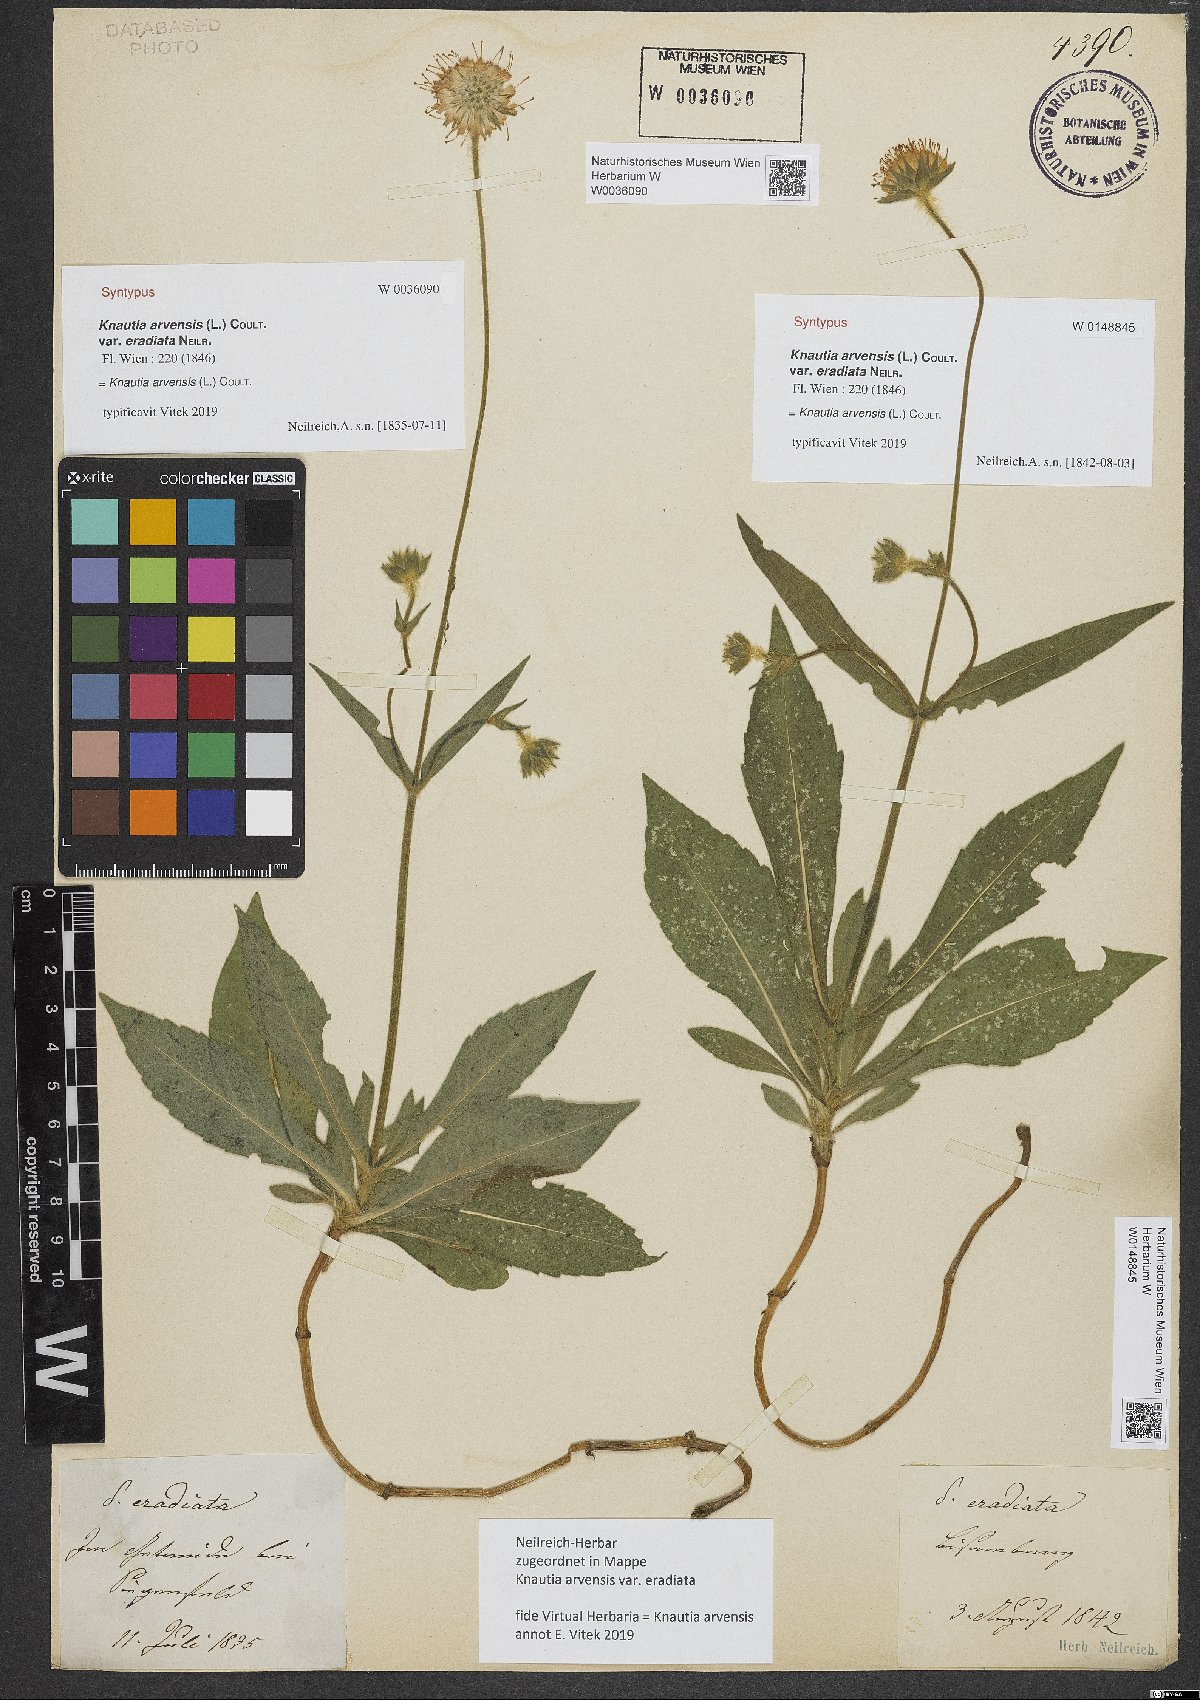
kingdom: Plantae
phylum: Tracheophyta
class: Magnoliopsida
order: Dipsacales
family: Caprifoliaceae
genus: Knautia
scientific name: Knautia arvensis
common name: Field scabiosa
